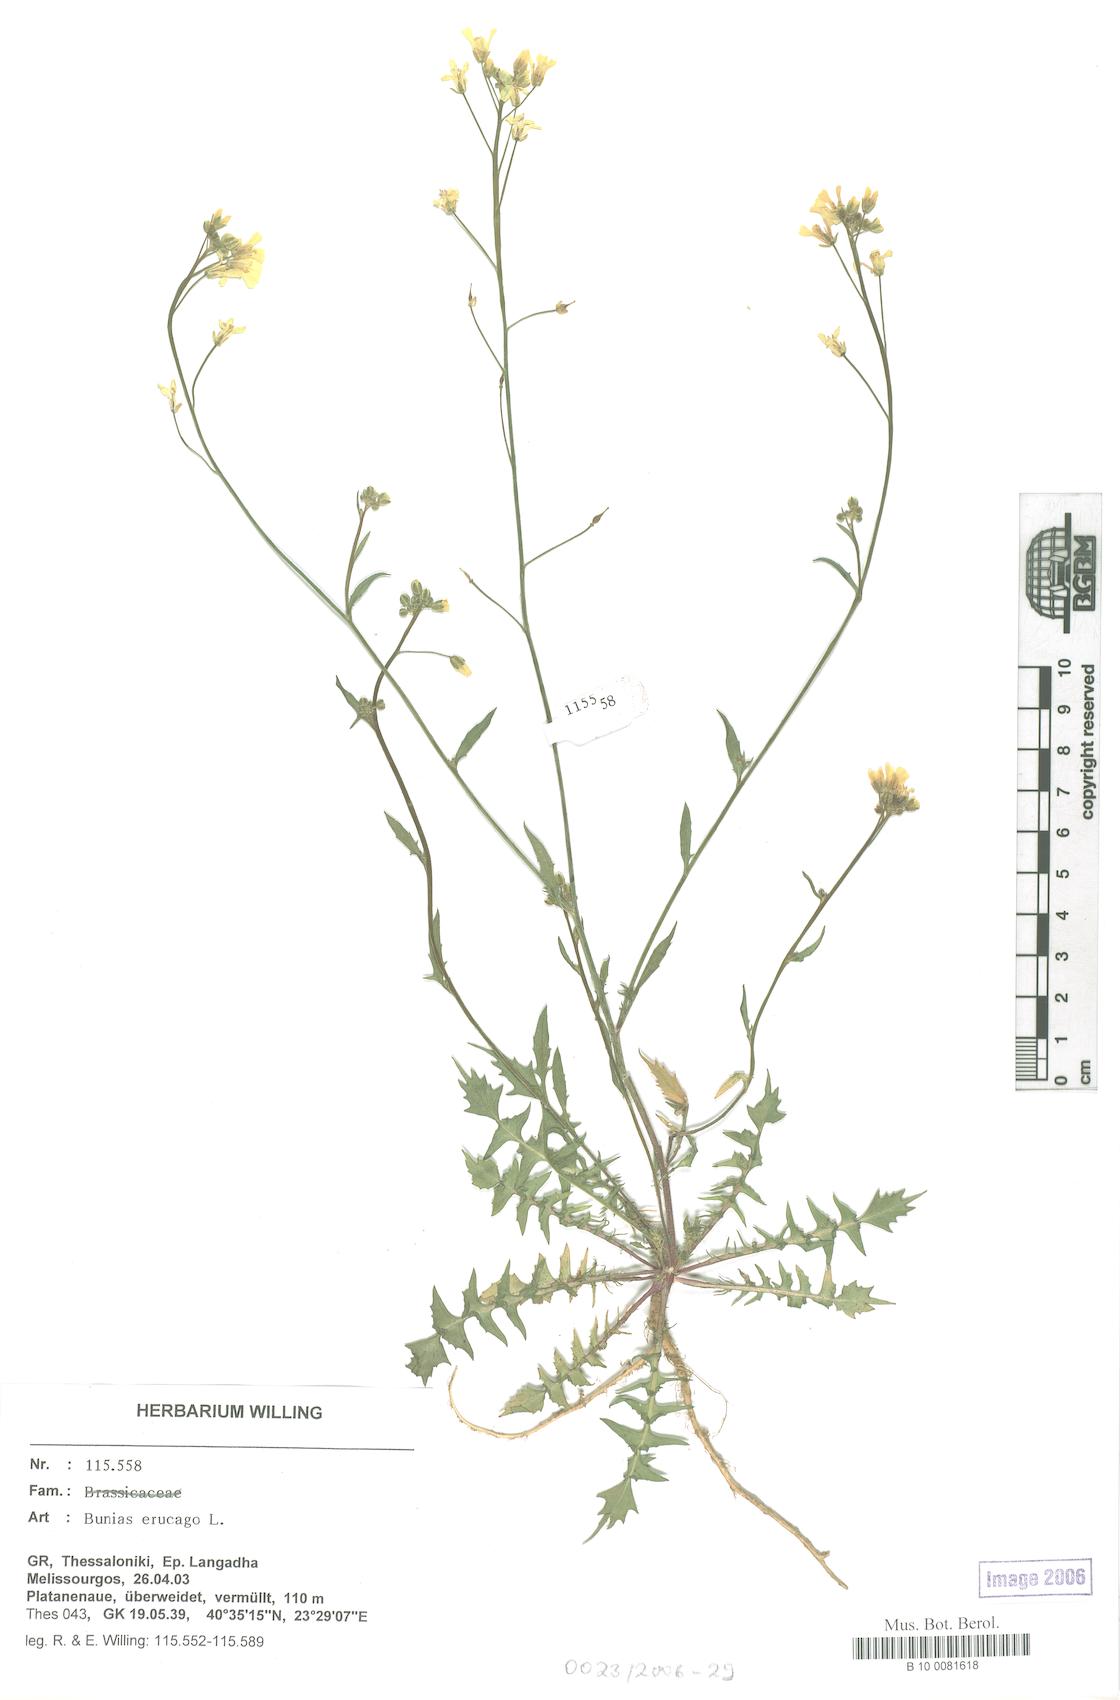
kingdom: Plantae
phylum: Tracheophyta
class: Magnoliopsida
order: Brassicales
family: Brassicaceae
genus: Bunias
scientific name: Bunias erucago
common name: Southern warty-cabbage
